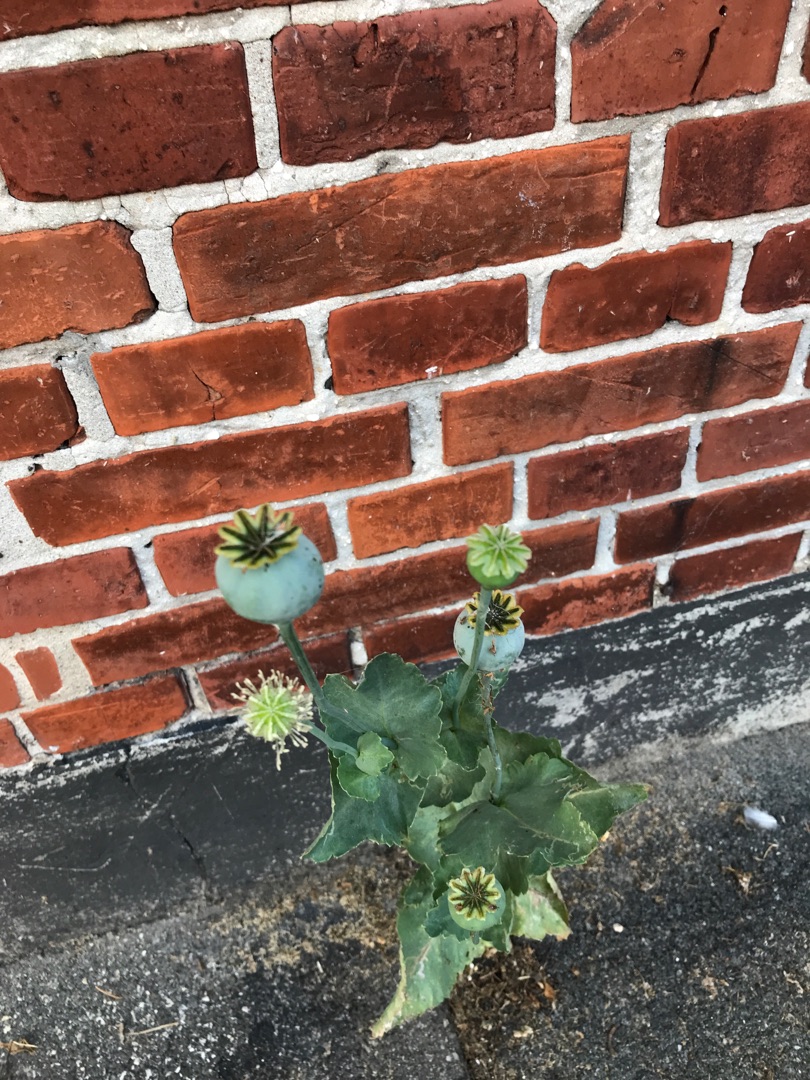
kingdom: Plantae
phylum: Tracheophyta
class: Magnoliopsida
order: Ranunculales
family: Papaveraceae
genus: Papaver
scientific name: Papaver somniferum
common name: Opium-valmue
